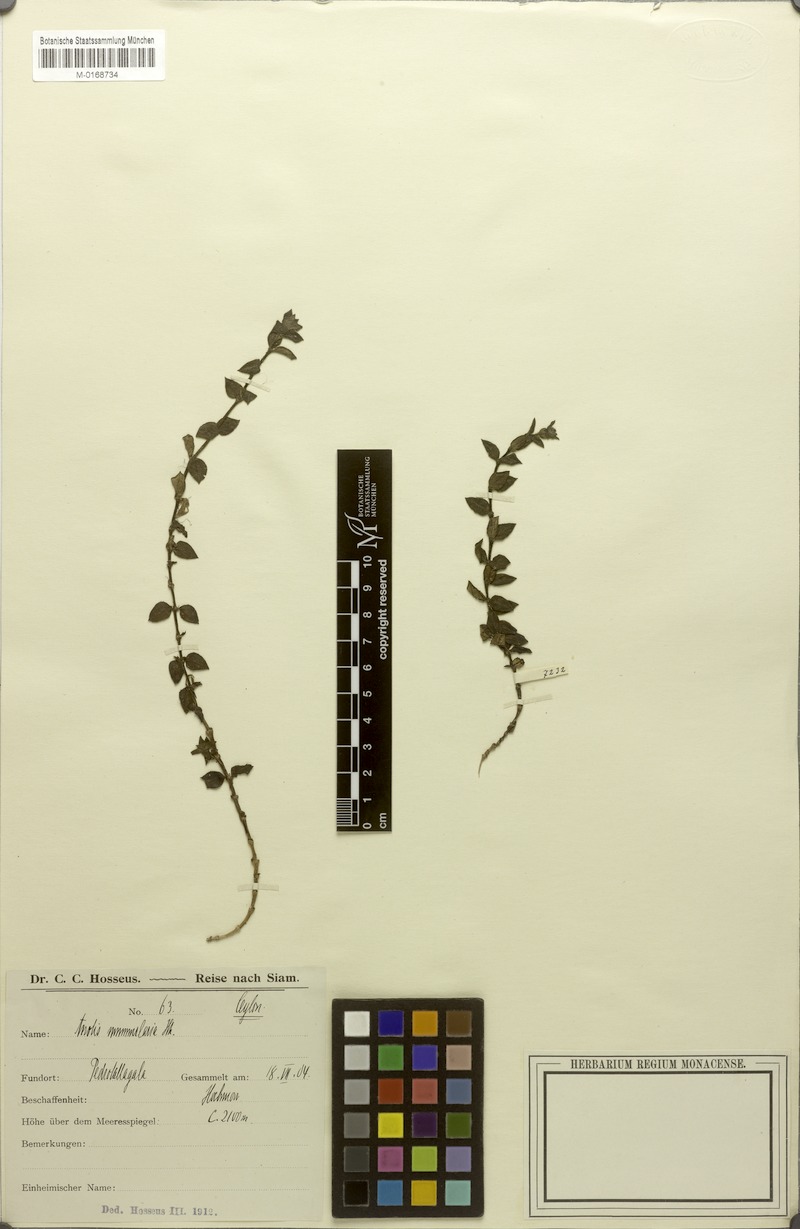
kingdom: Plantae
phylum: Tracheophyta
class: Magnoliopsida
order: Gentianales
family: Rubiaceae
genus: Neanotis
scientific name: Neanotis nummularia
